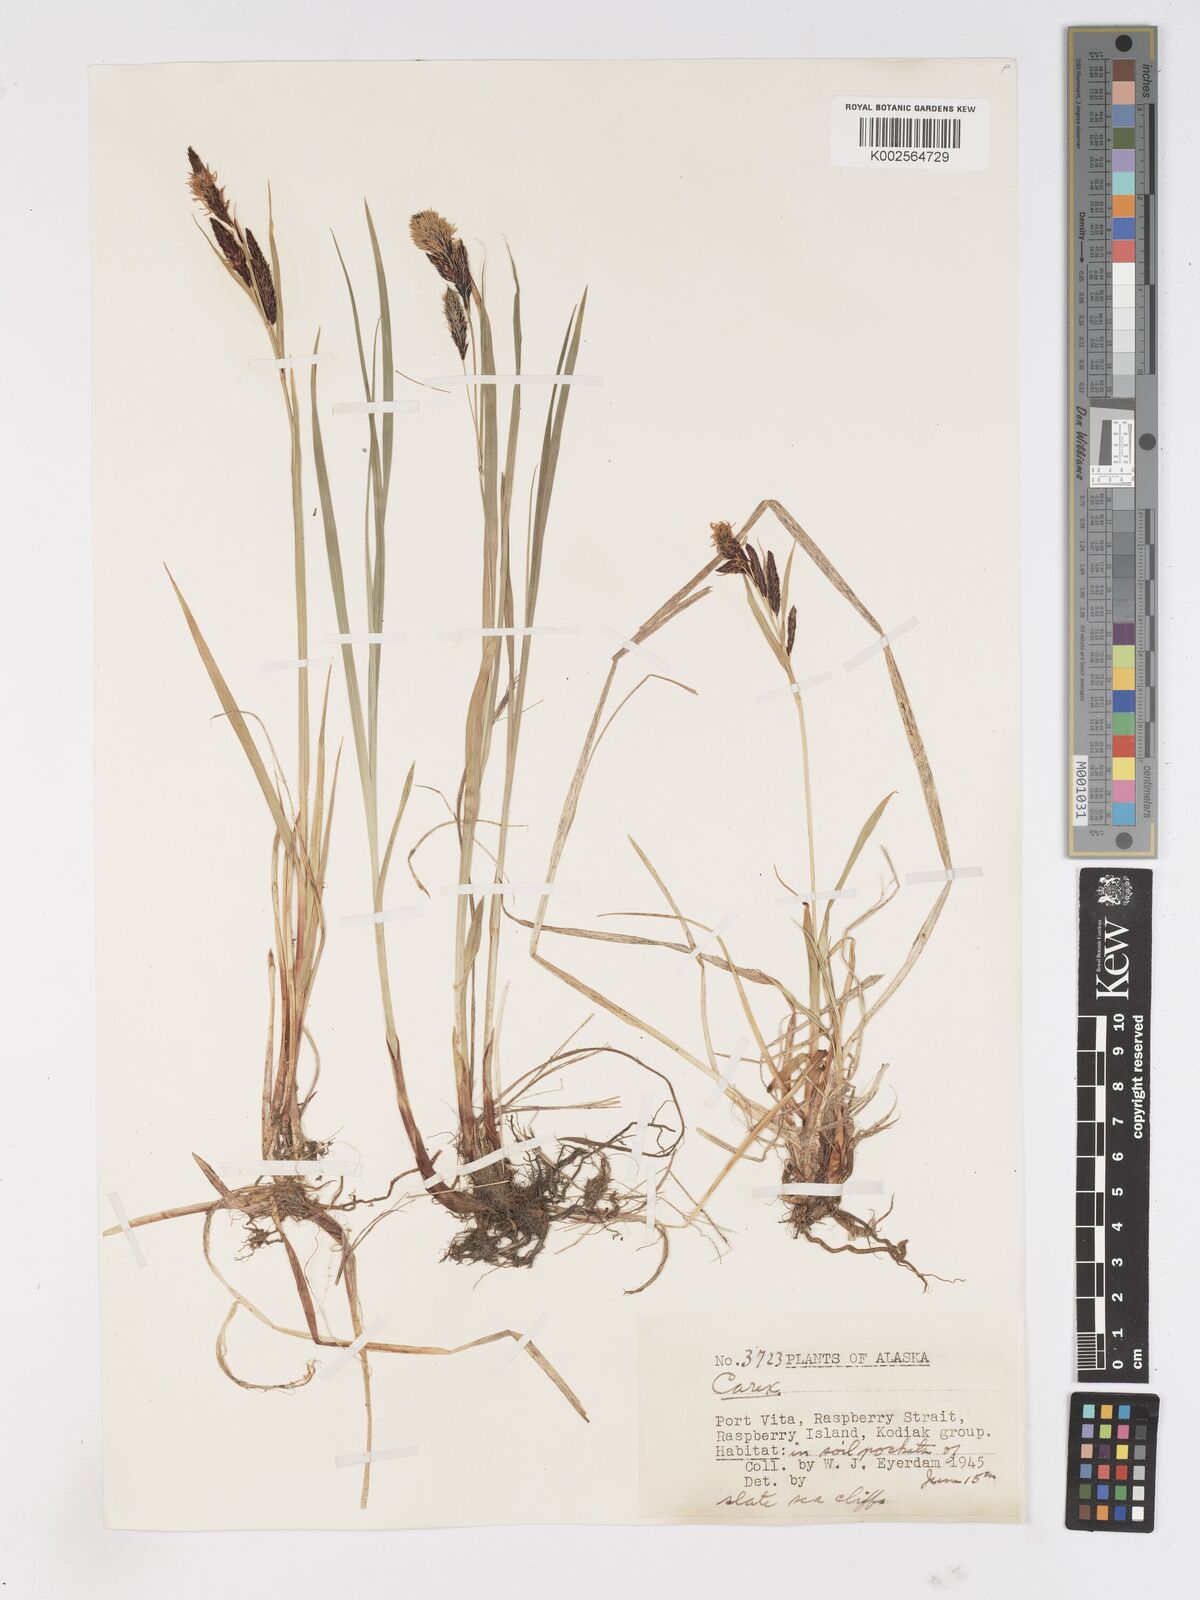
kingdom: Plantae
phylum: Tracheophyta
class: Liliopsida
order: Poales
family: Cyperaceae
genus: Carex
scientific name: Carex
